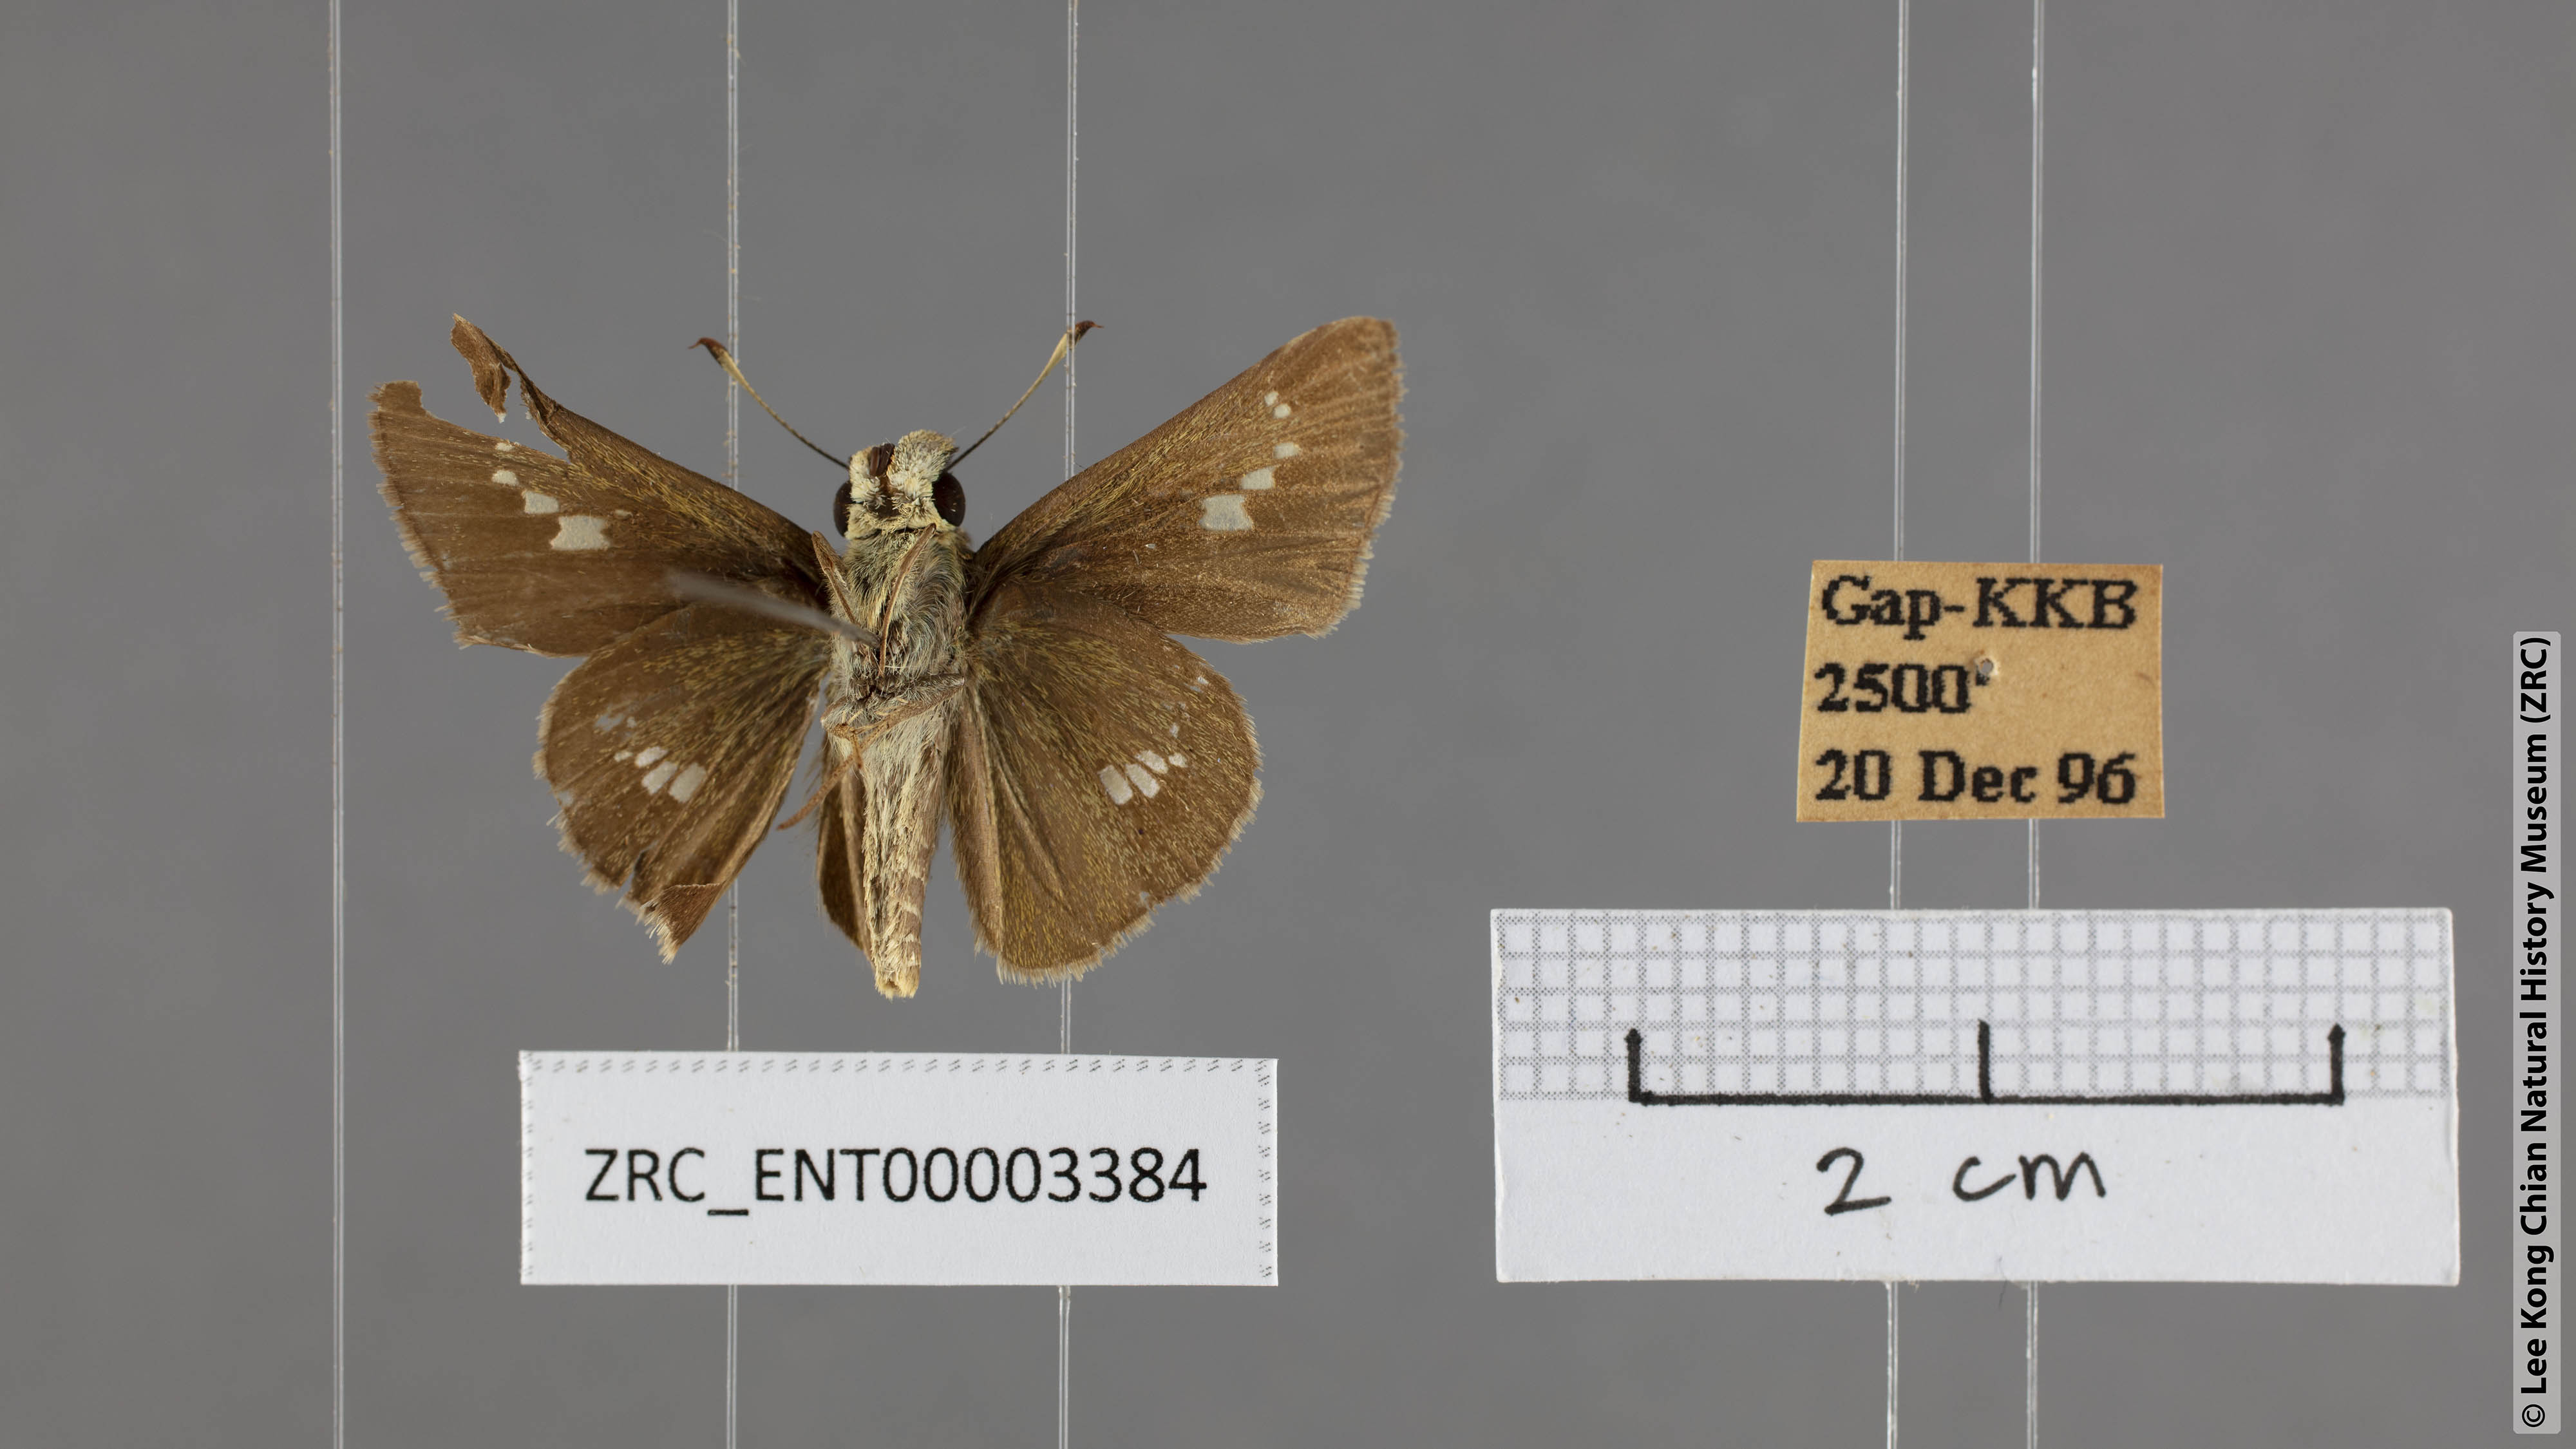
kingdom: Animalia
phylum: Arthropoda
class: Insecta
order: Lepidoptera
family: Hesperiidae
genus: Parnara
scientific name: Parnara apostata
